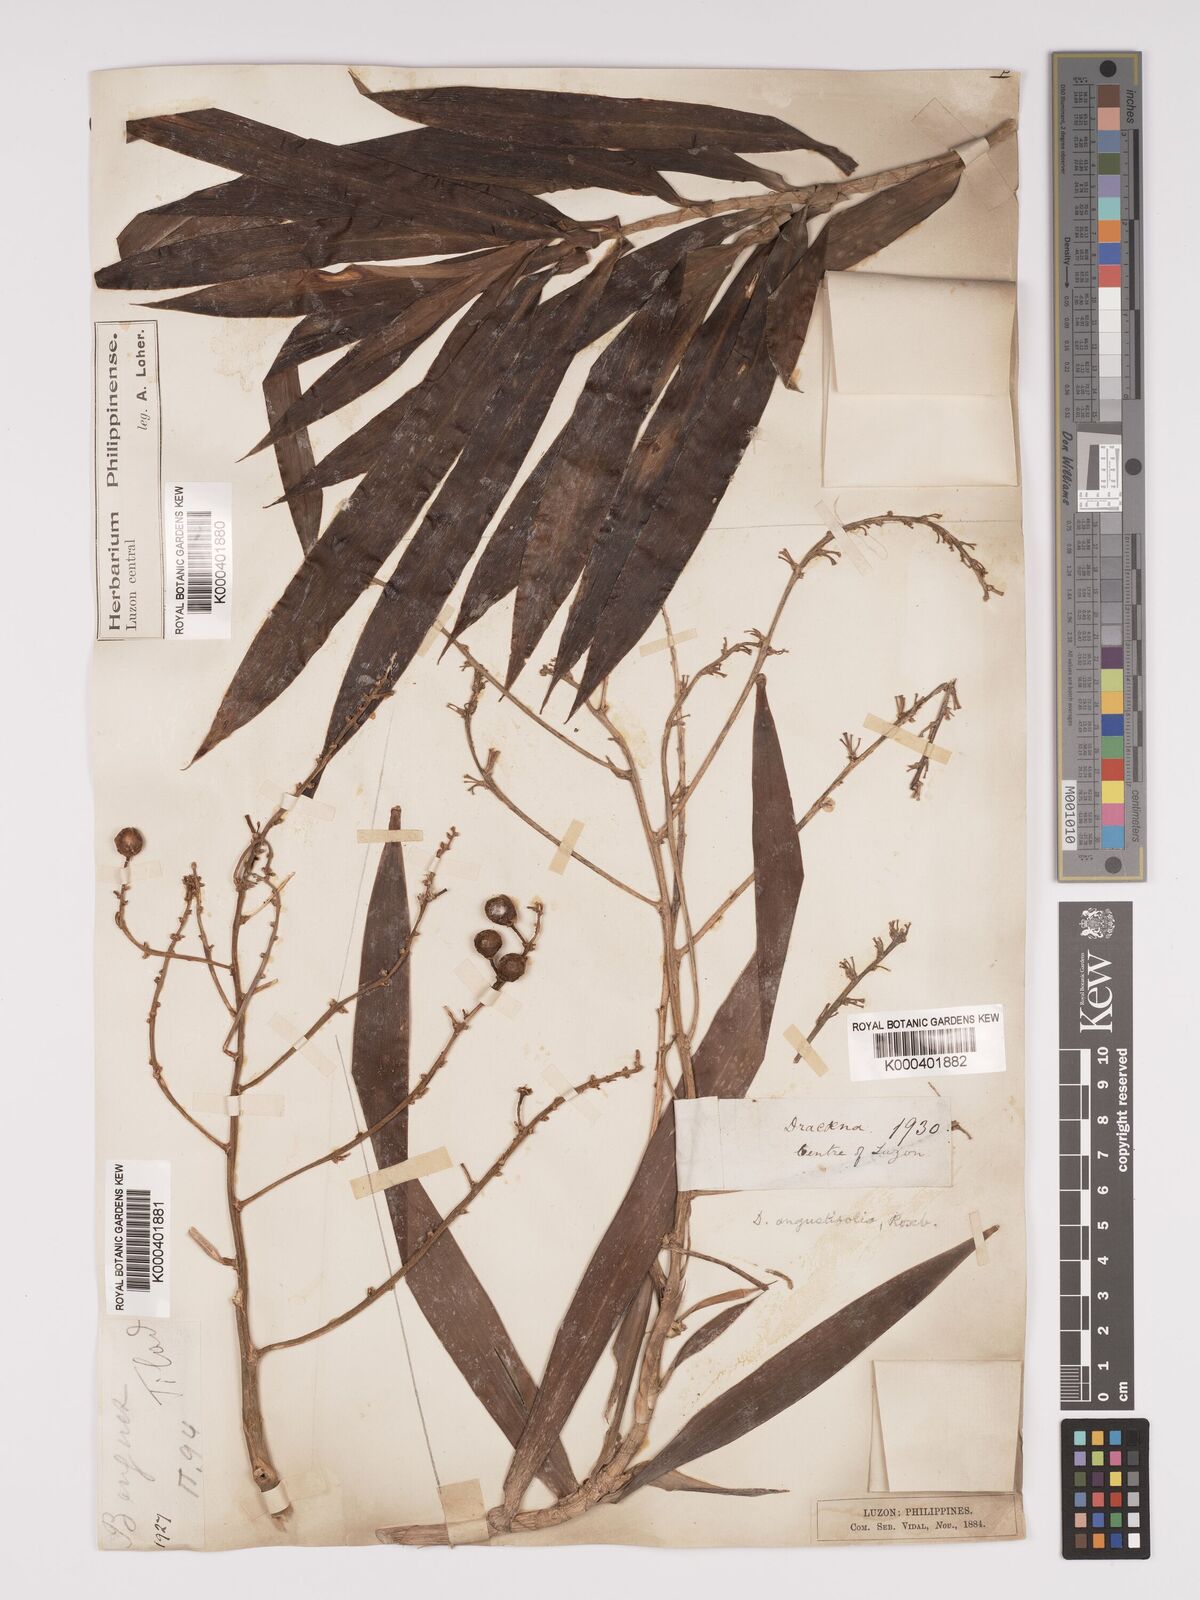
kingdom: Plantae
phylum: Tracheophyta
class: Liliopsida
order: Asparagales
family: Asparagaceae
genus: Dracaena
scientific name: Dracaena angustifolia
